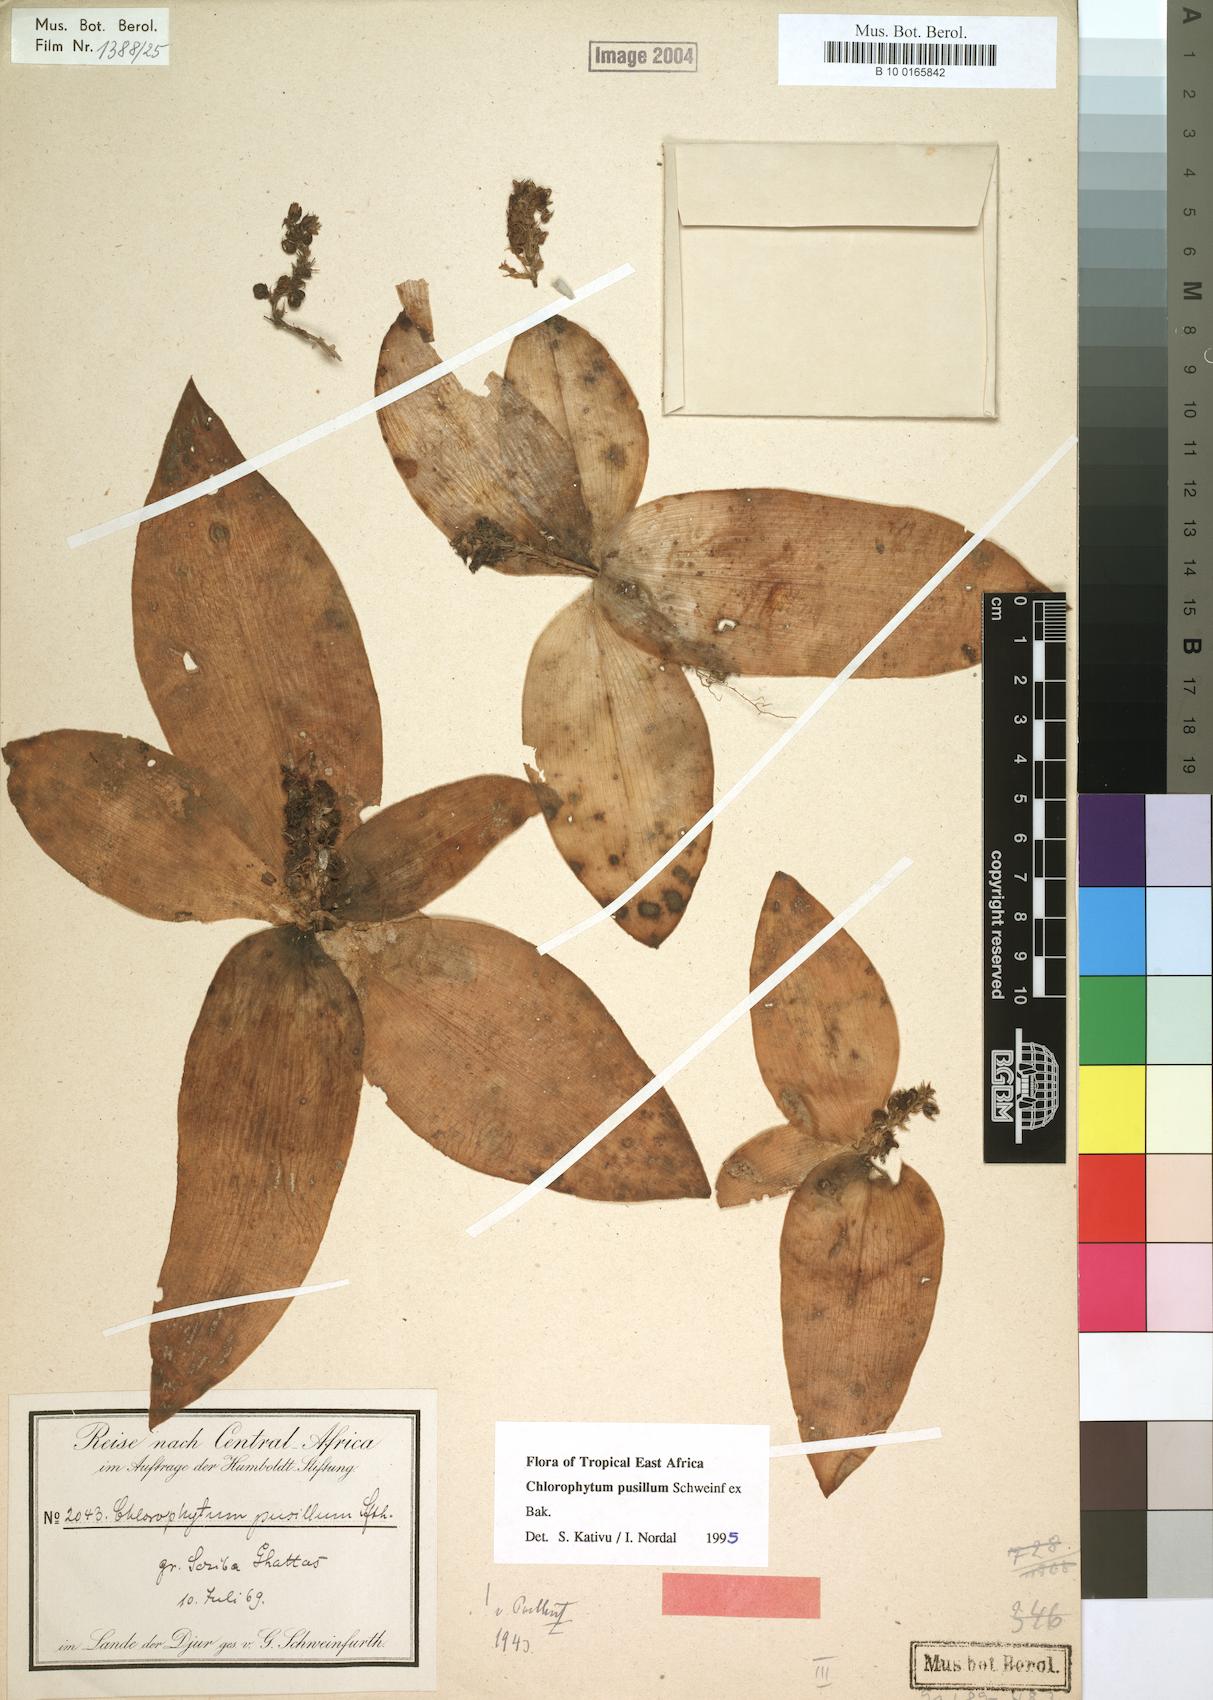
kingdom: Plantae
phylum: Tracheophyta
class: Liliopsida
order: Asparagales
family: Asparagaceae
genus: Chlorophytum
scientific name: Chlorophytum pusillum
